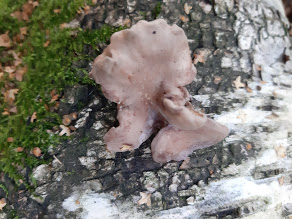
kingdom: Fungi
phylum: Basidiomycota
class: Agaricomycetes
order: Polyporales
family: Panaceae
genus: Panus
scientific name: Panus conchatus
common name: filtstokket læderhat
